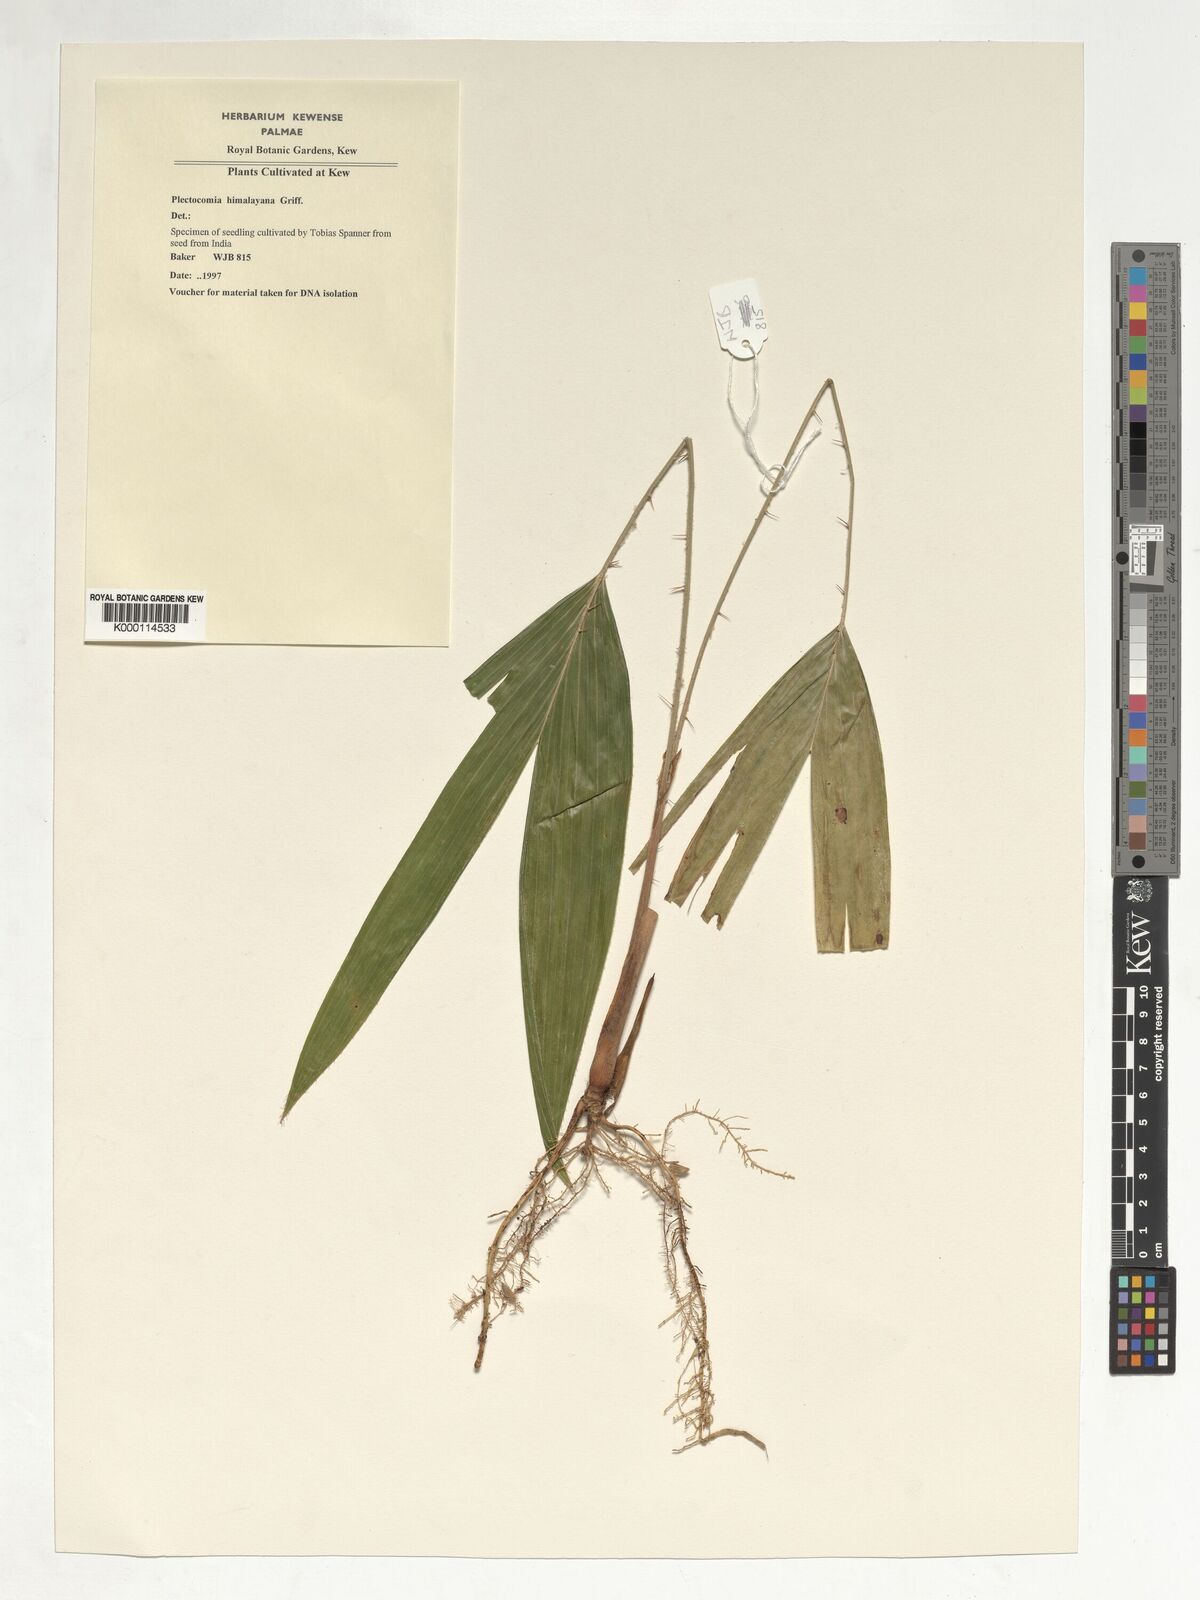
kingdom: Plantae
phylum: Tracheophyta
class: Liliopsida
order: Arecales
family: Arecaceae
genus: Plectocomia
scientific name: Plectocomia himalayana
